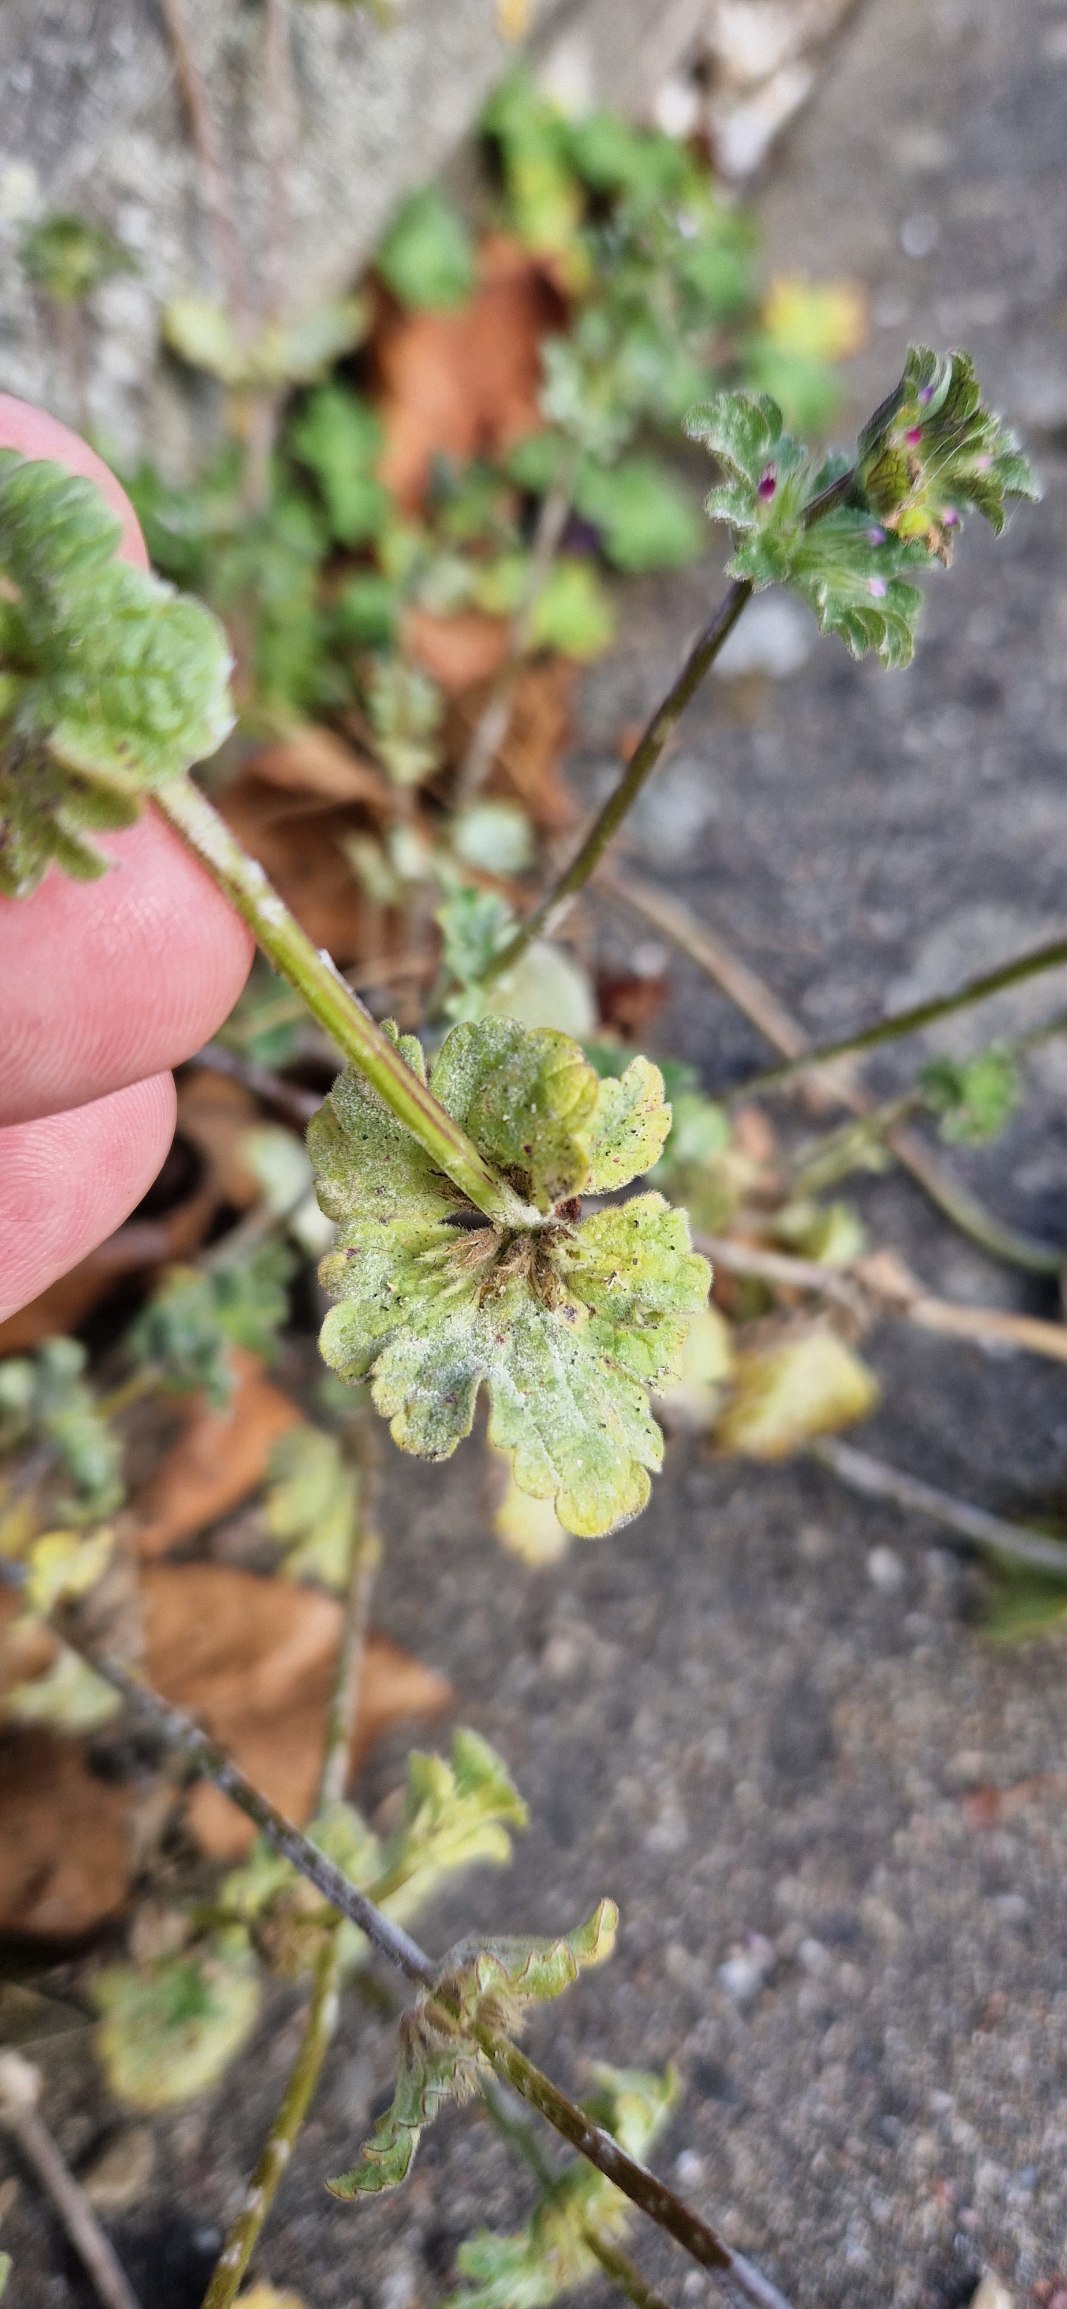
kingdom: Plantae
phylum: Tracheophyta
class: Magnoliopsida
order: Lamiales
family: Lamiaceae
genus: Lamium
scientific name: Lamium amplexicaule
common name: Liden tvetand
